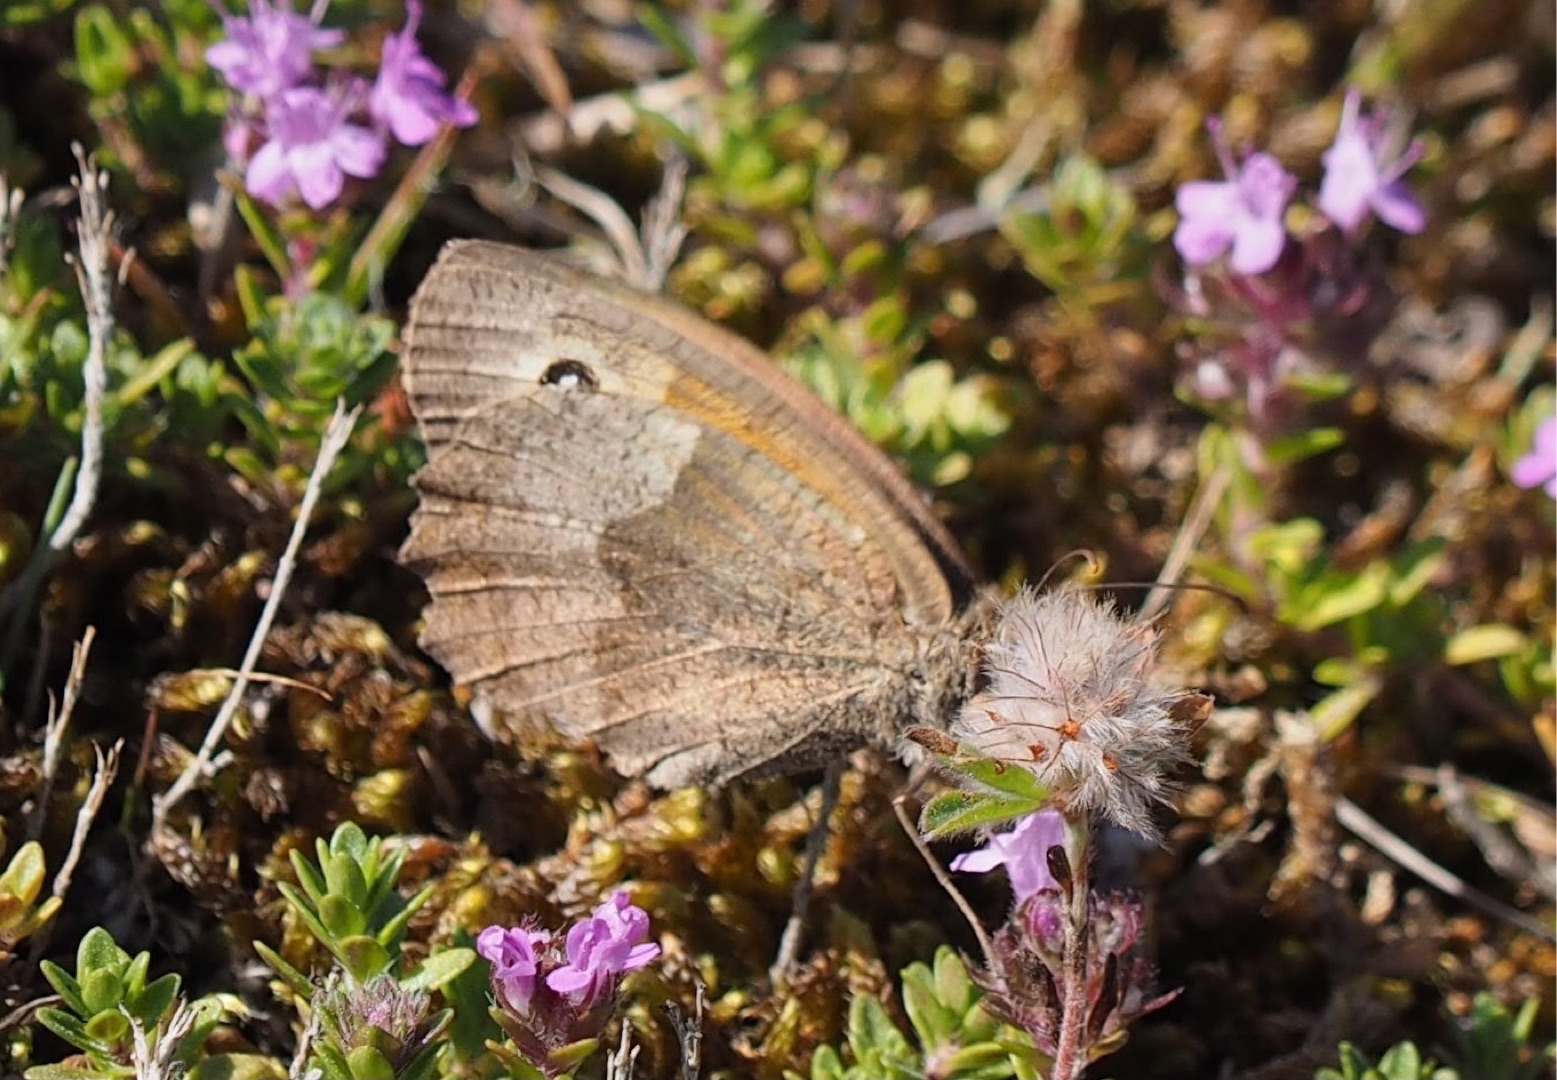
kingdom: Animalia
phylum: Arthropoda
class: Insecta
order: Lepidoptera
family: Nymphalidae
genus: Maniola
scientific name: Maniola jurtina
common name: Græsrandøje
